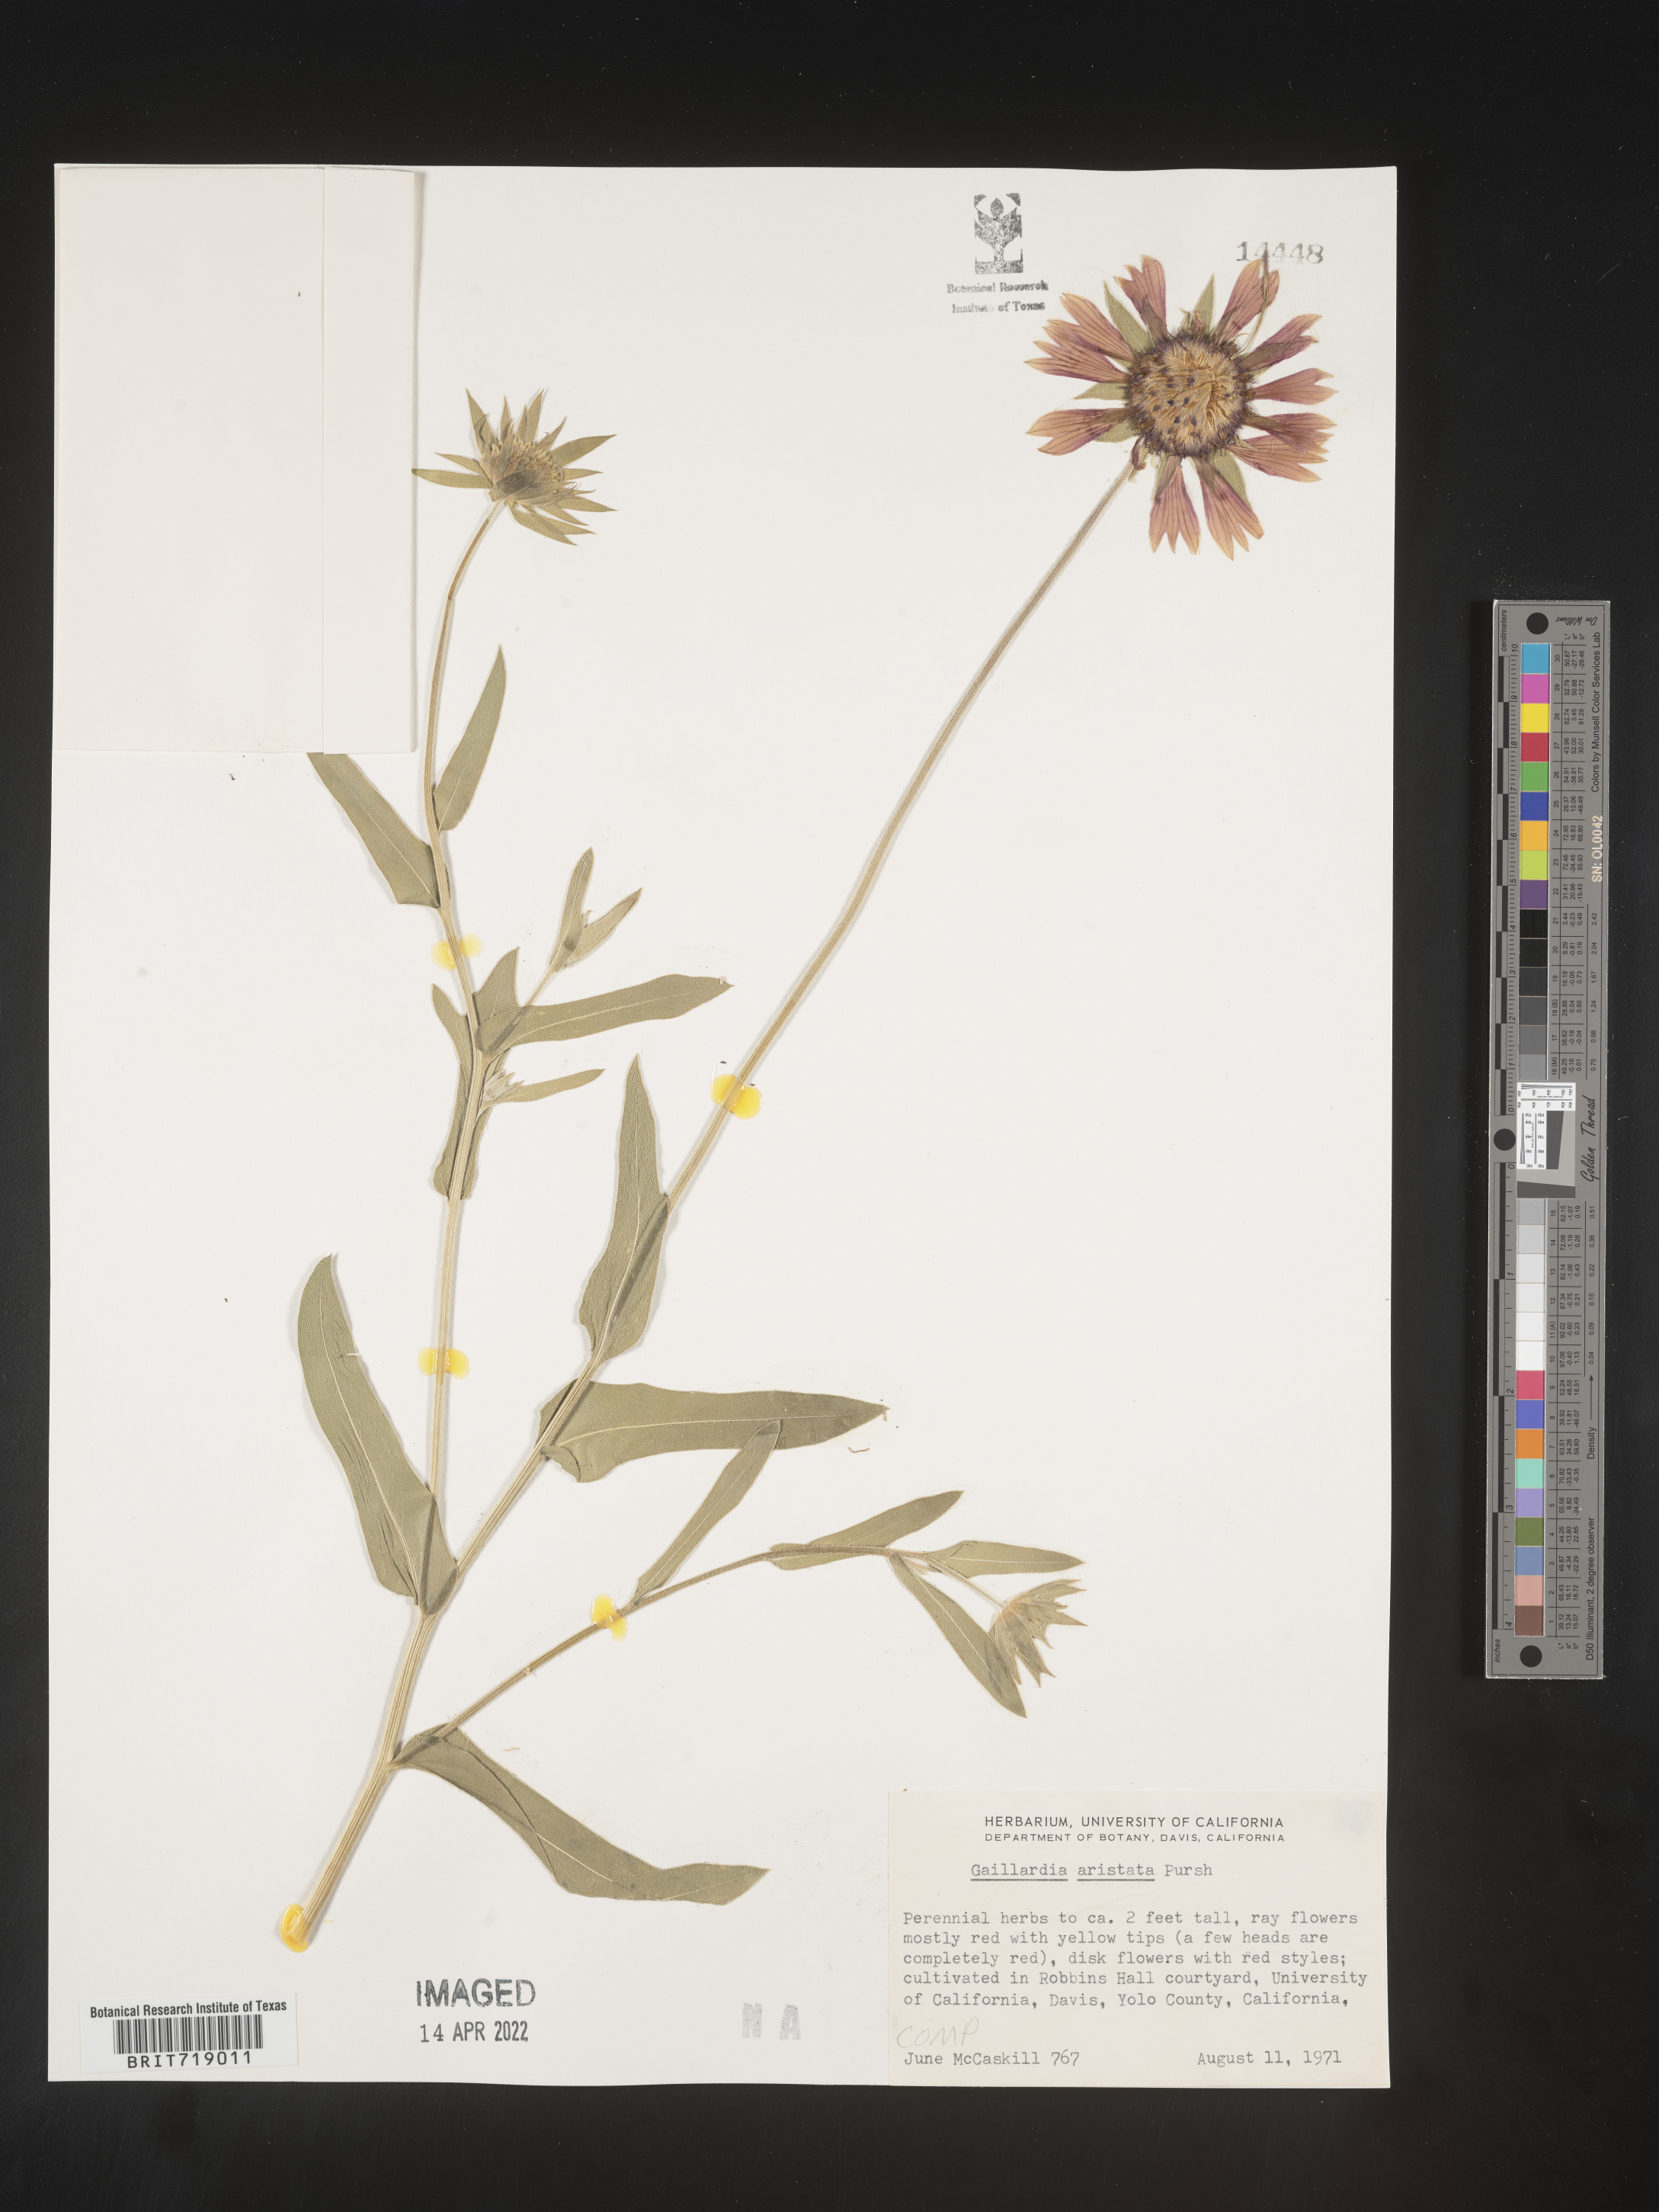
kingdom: Plantae
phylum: Tracheophyta
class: Magnoliopsida
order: Asterales
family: Asteraceae
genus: Gaillardia
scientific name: Gaillardia aristata
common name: Blanket-flower
